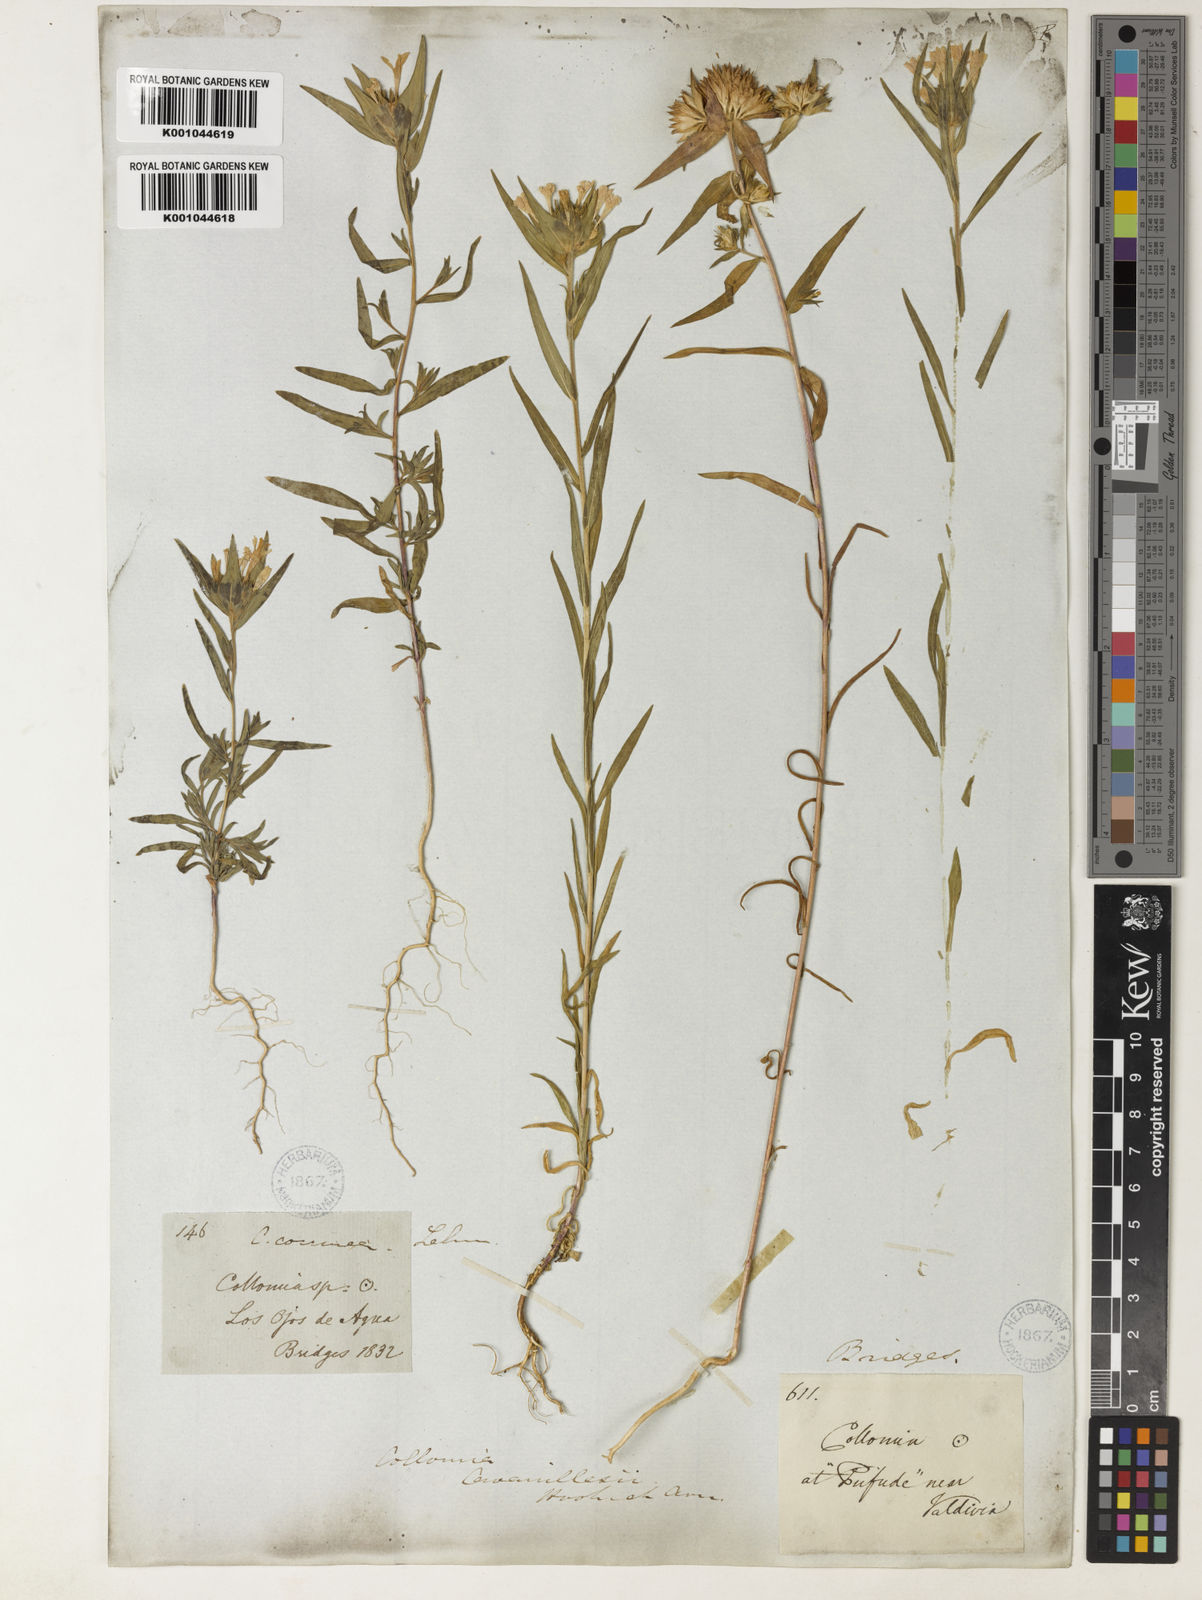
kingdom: Plantae
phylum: Tracheophyta
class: Magnoliopsida
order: Ericales
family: Polemoniaceae
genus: Collomia
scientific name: Collomia biflora
